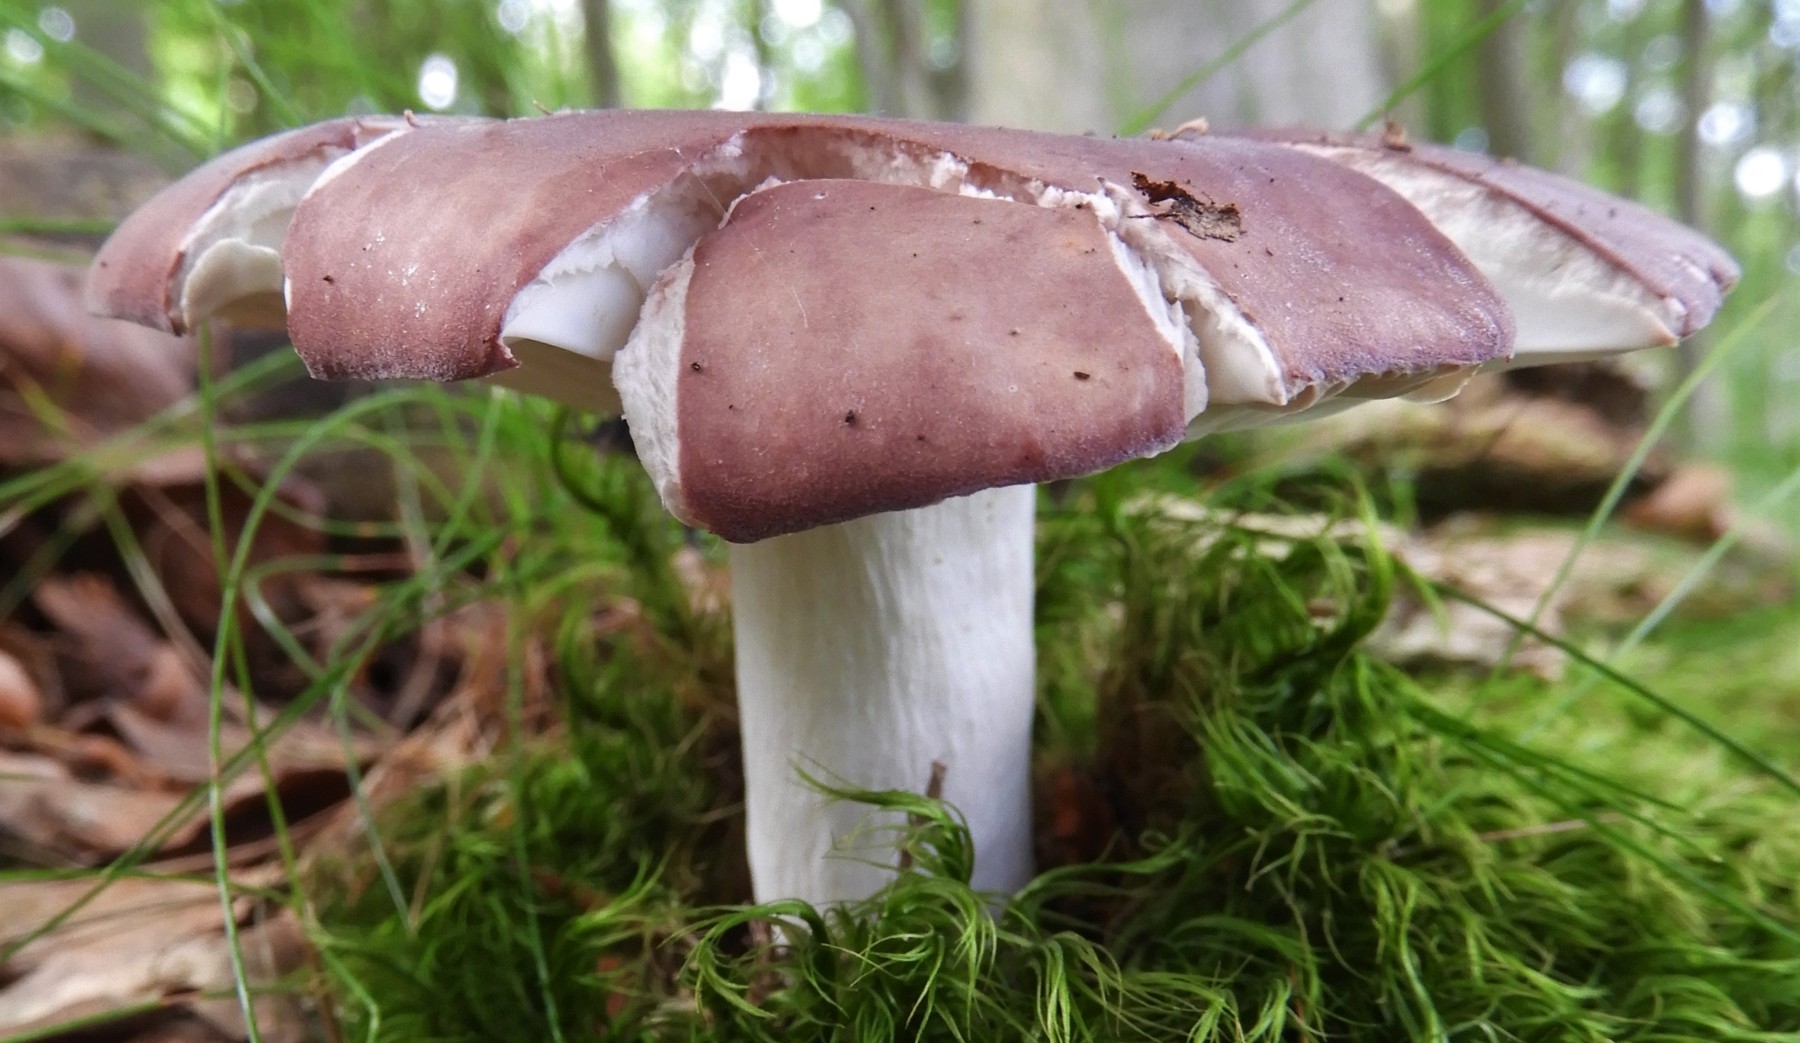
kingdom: Fungi
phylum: Basidiomycota
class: Agaricomycetes
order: Russulales
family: Russulaceae
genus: Russula
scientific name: Russula olivacea
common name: stor skørhat
